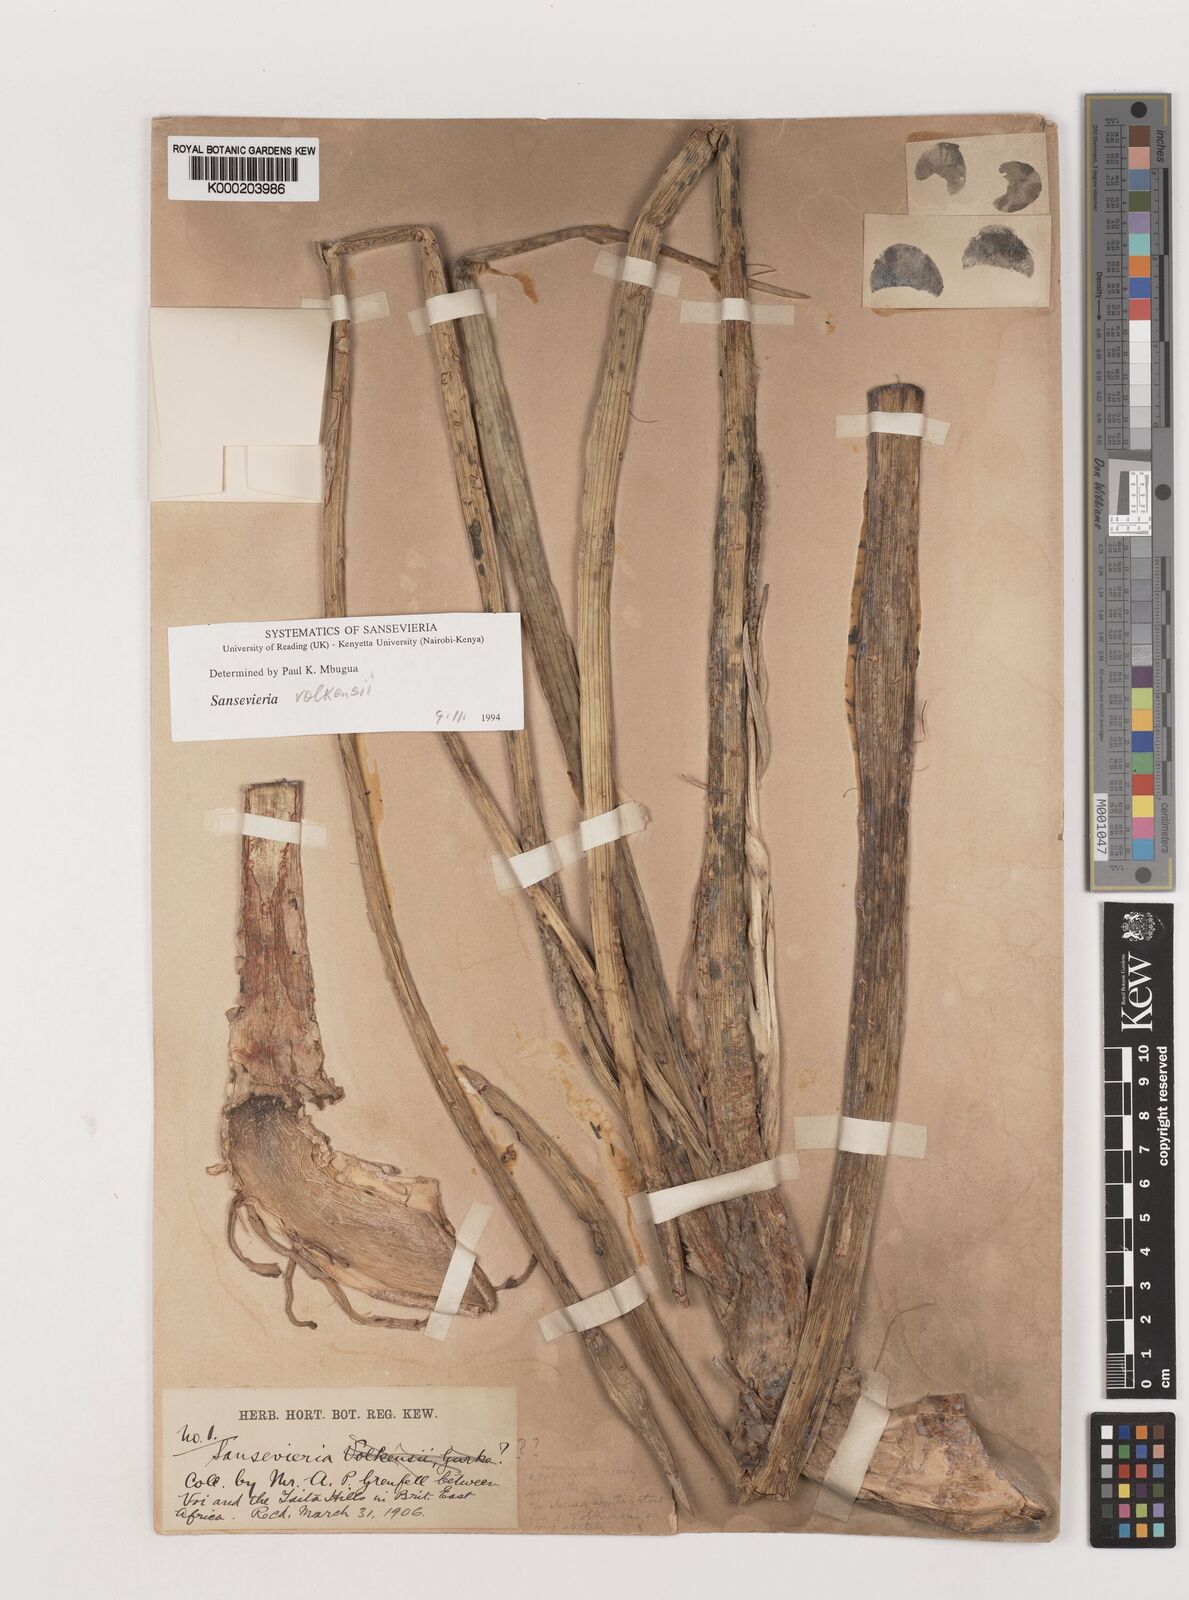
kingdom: Plantae
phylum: Tracheophyta
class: Liliopsida
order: Asparagales
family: Asparagaceae
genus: Dracaena
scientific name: Dracaena
